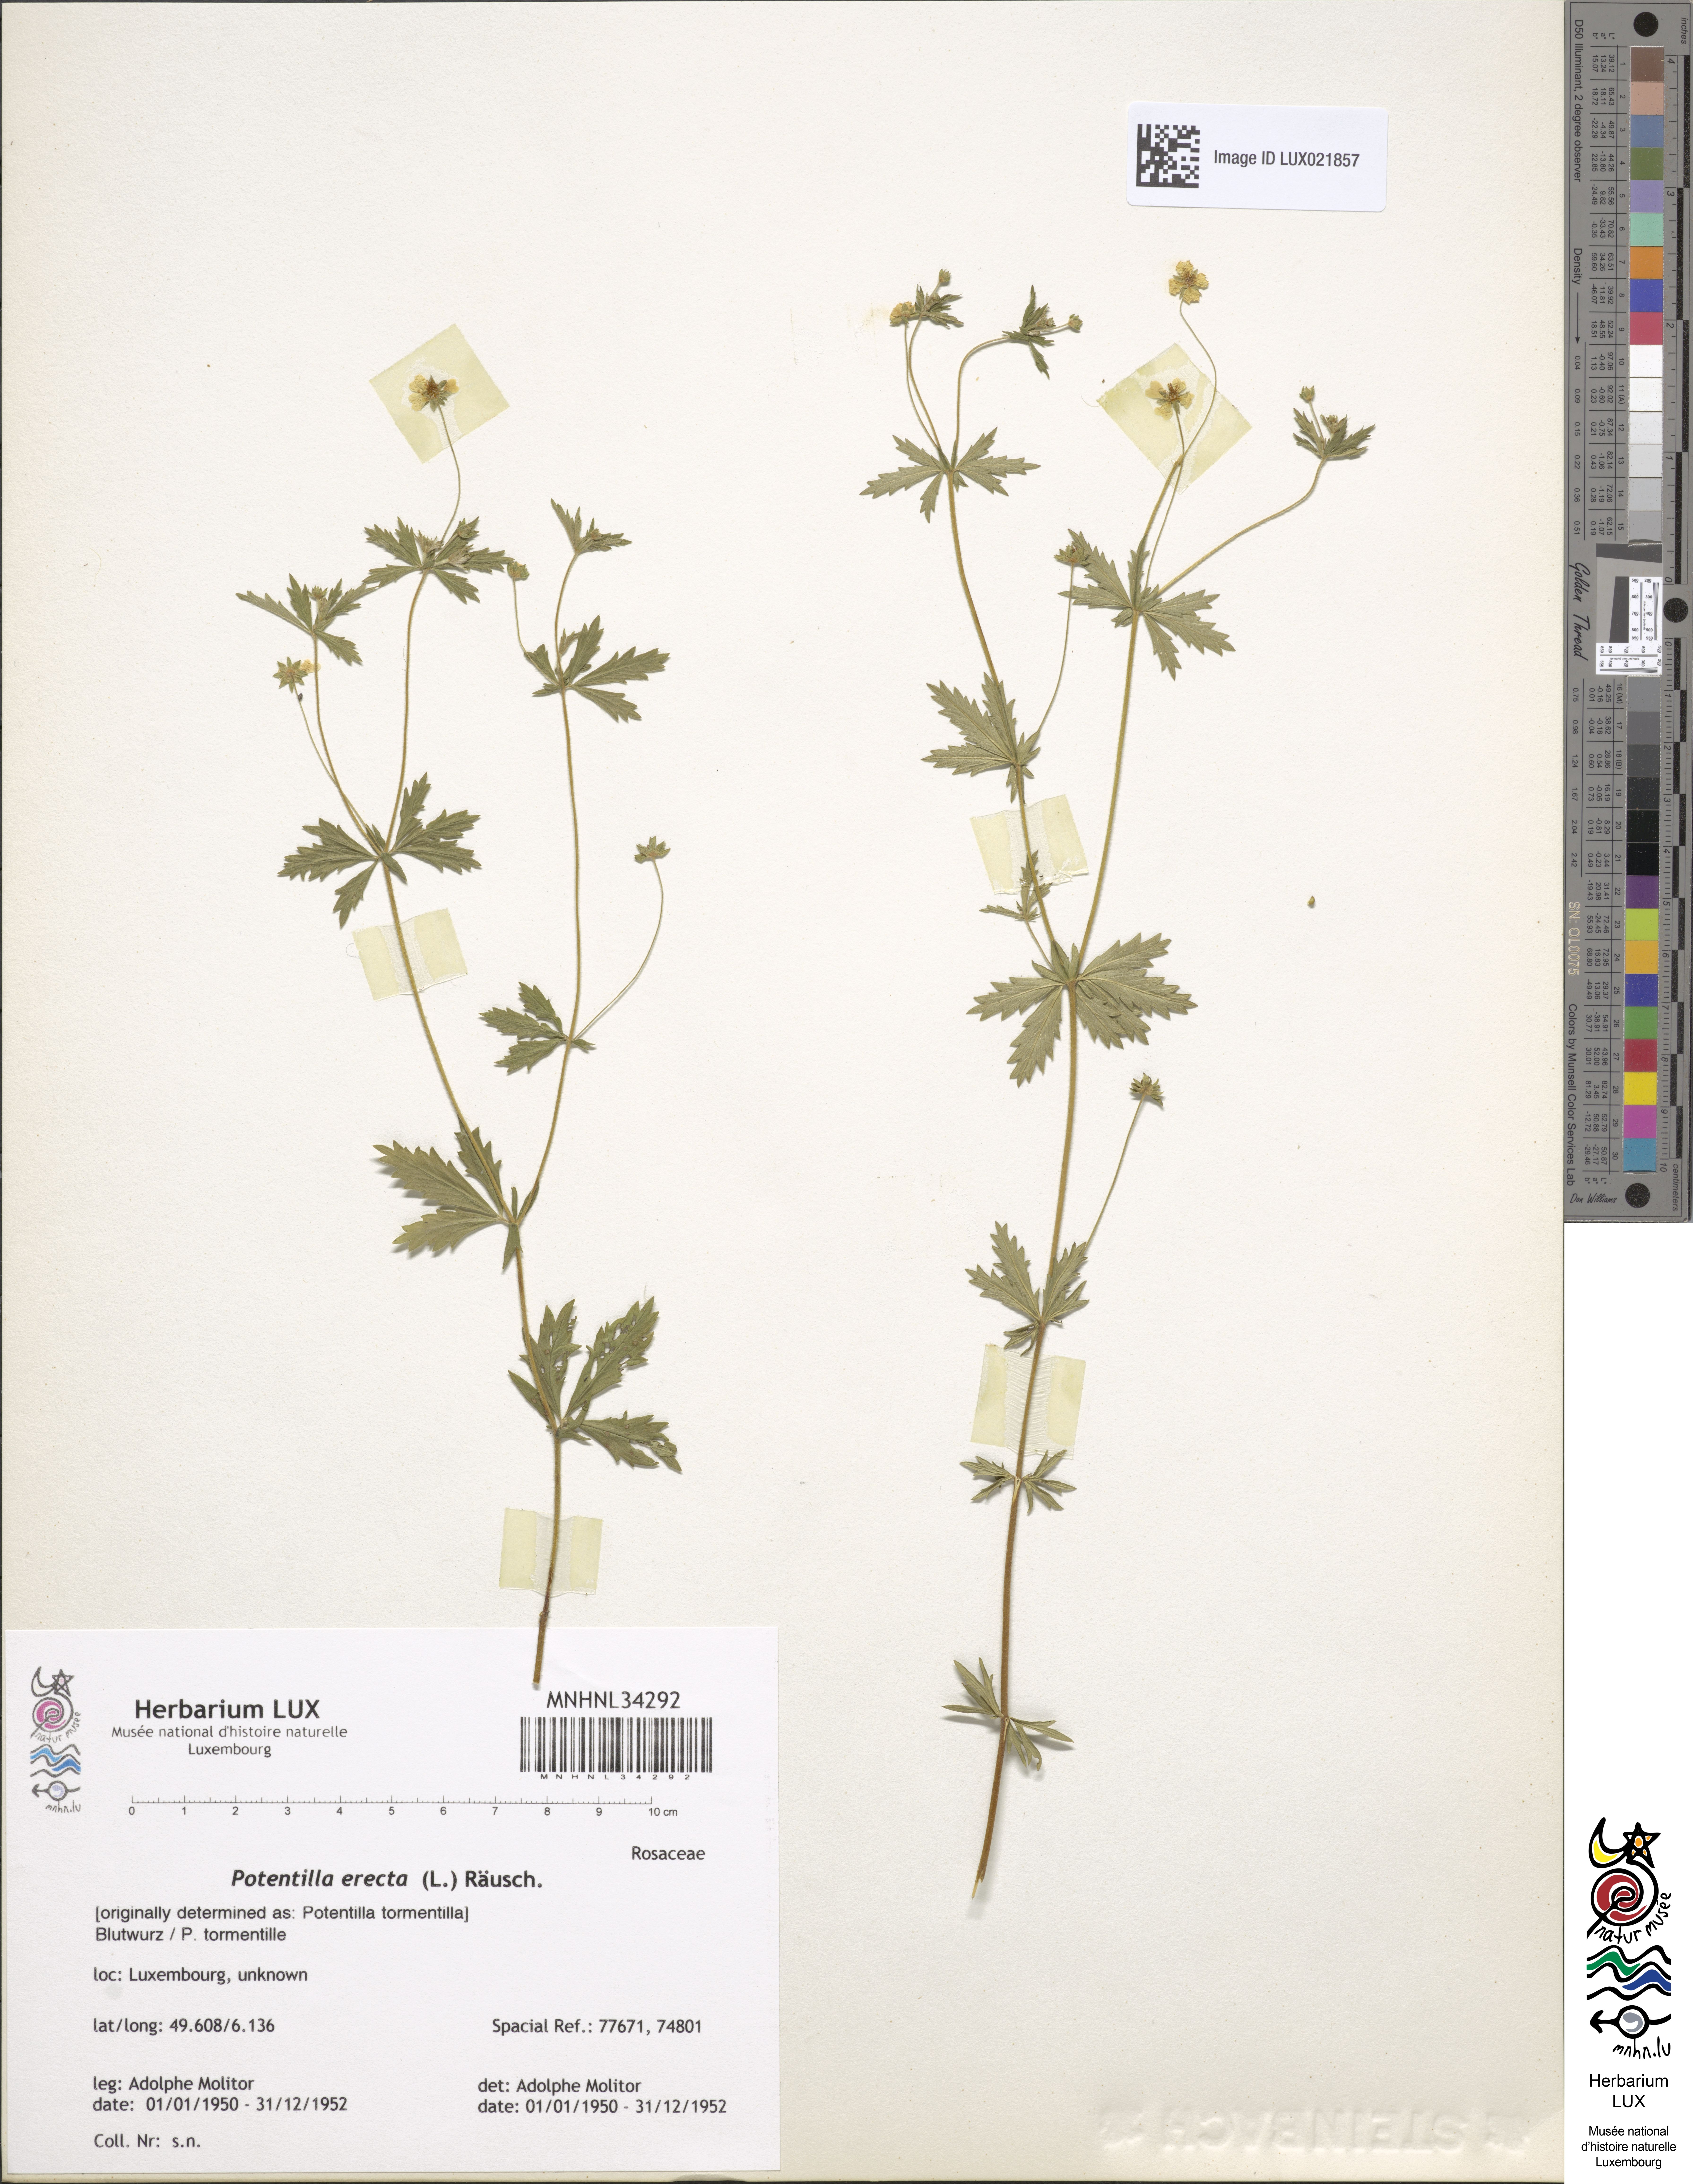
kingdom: Plantae
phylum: Tracheophyta
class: Magnoliopsida
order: Rosales
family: Rosaceae
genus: Potentilla
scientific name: Potentilla erecta
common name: Tormentil
